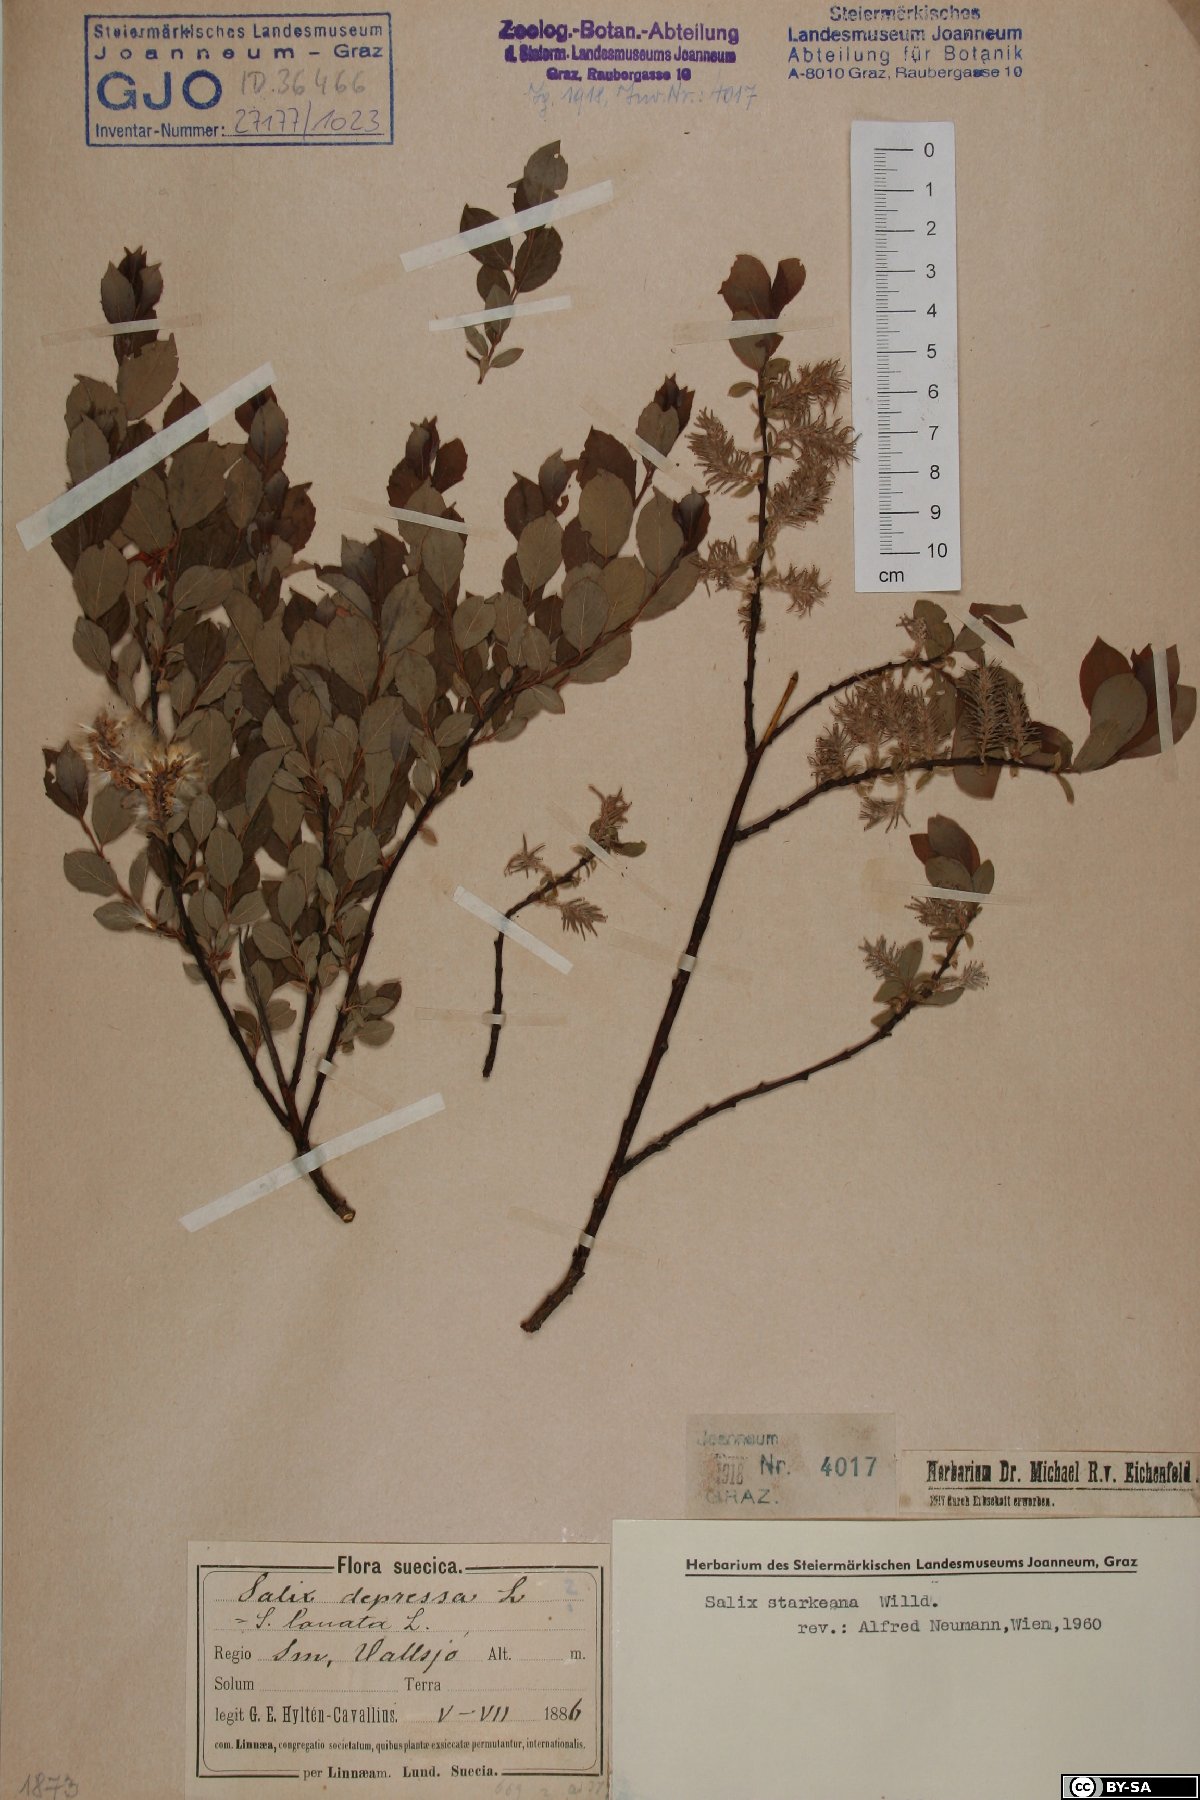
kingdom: Plantae
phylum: Tracheophyta
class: Magnoliopsida
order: Malpighiales
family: Salicaceae
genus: Salix
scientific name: Salix starkeana
